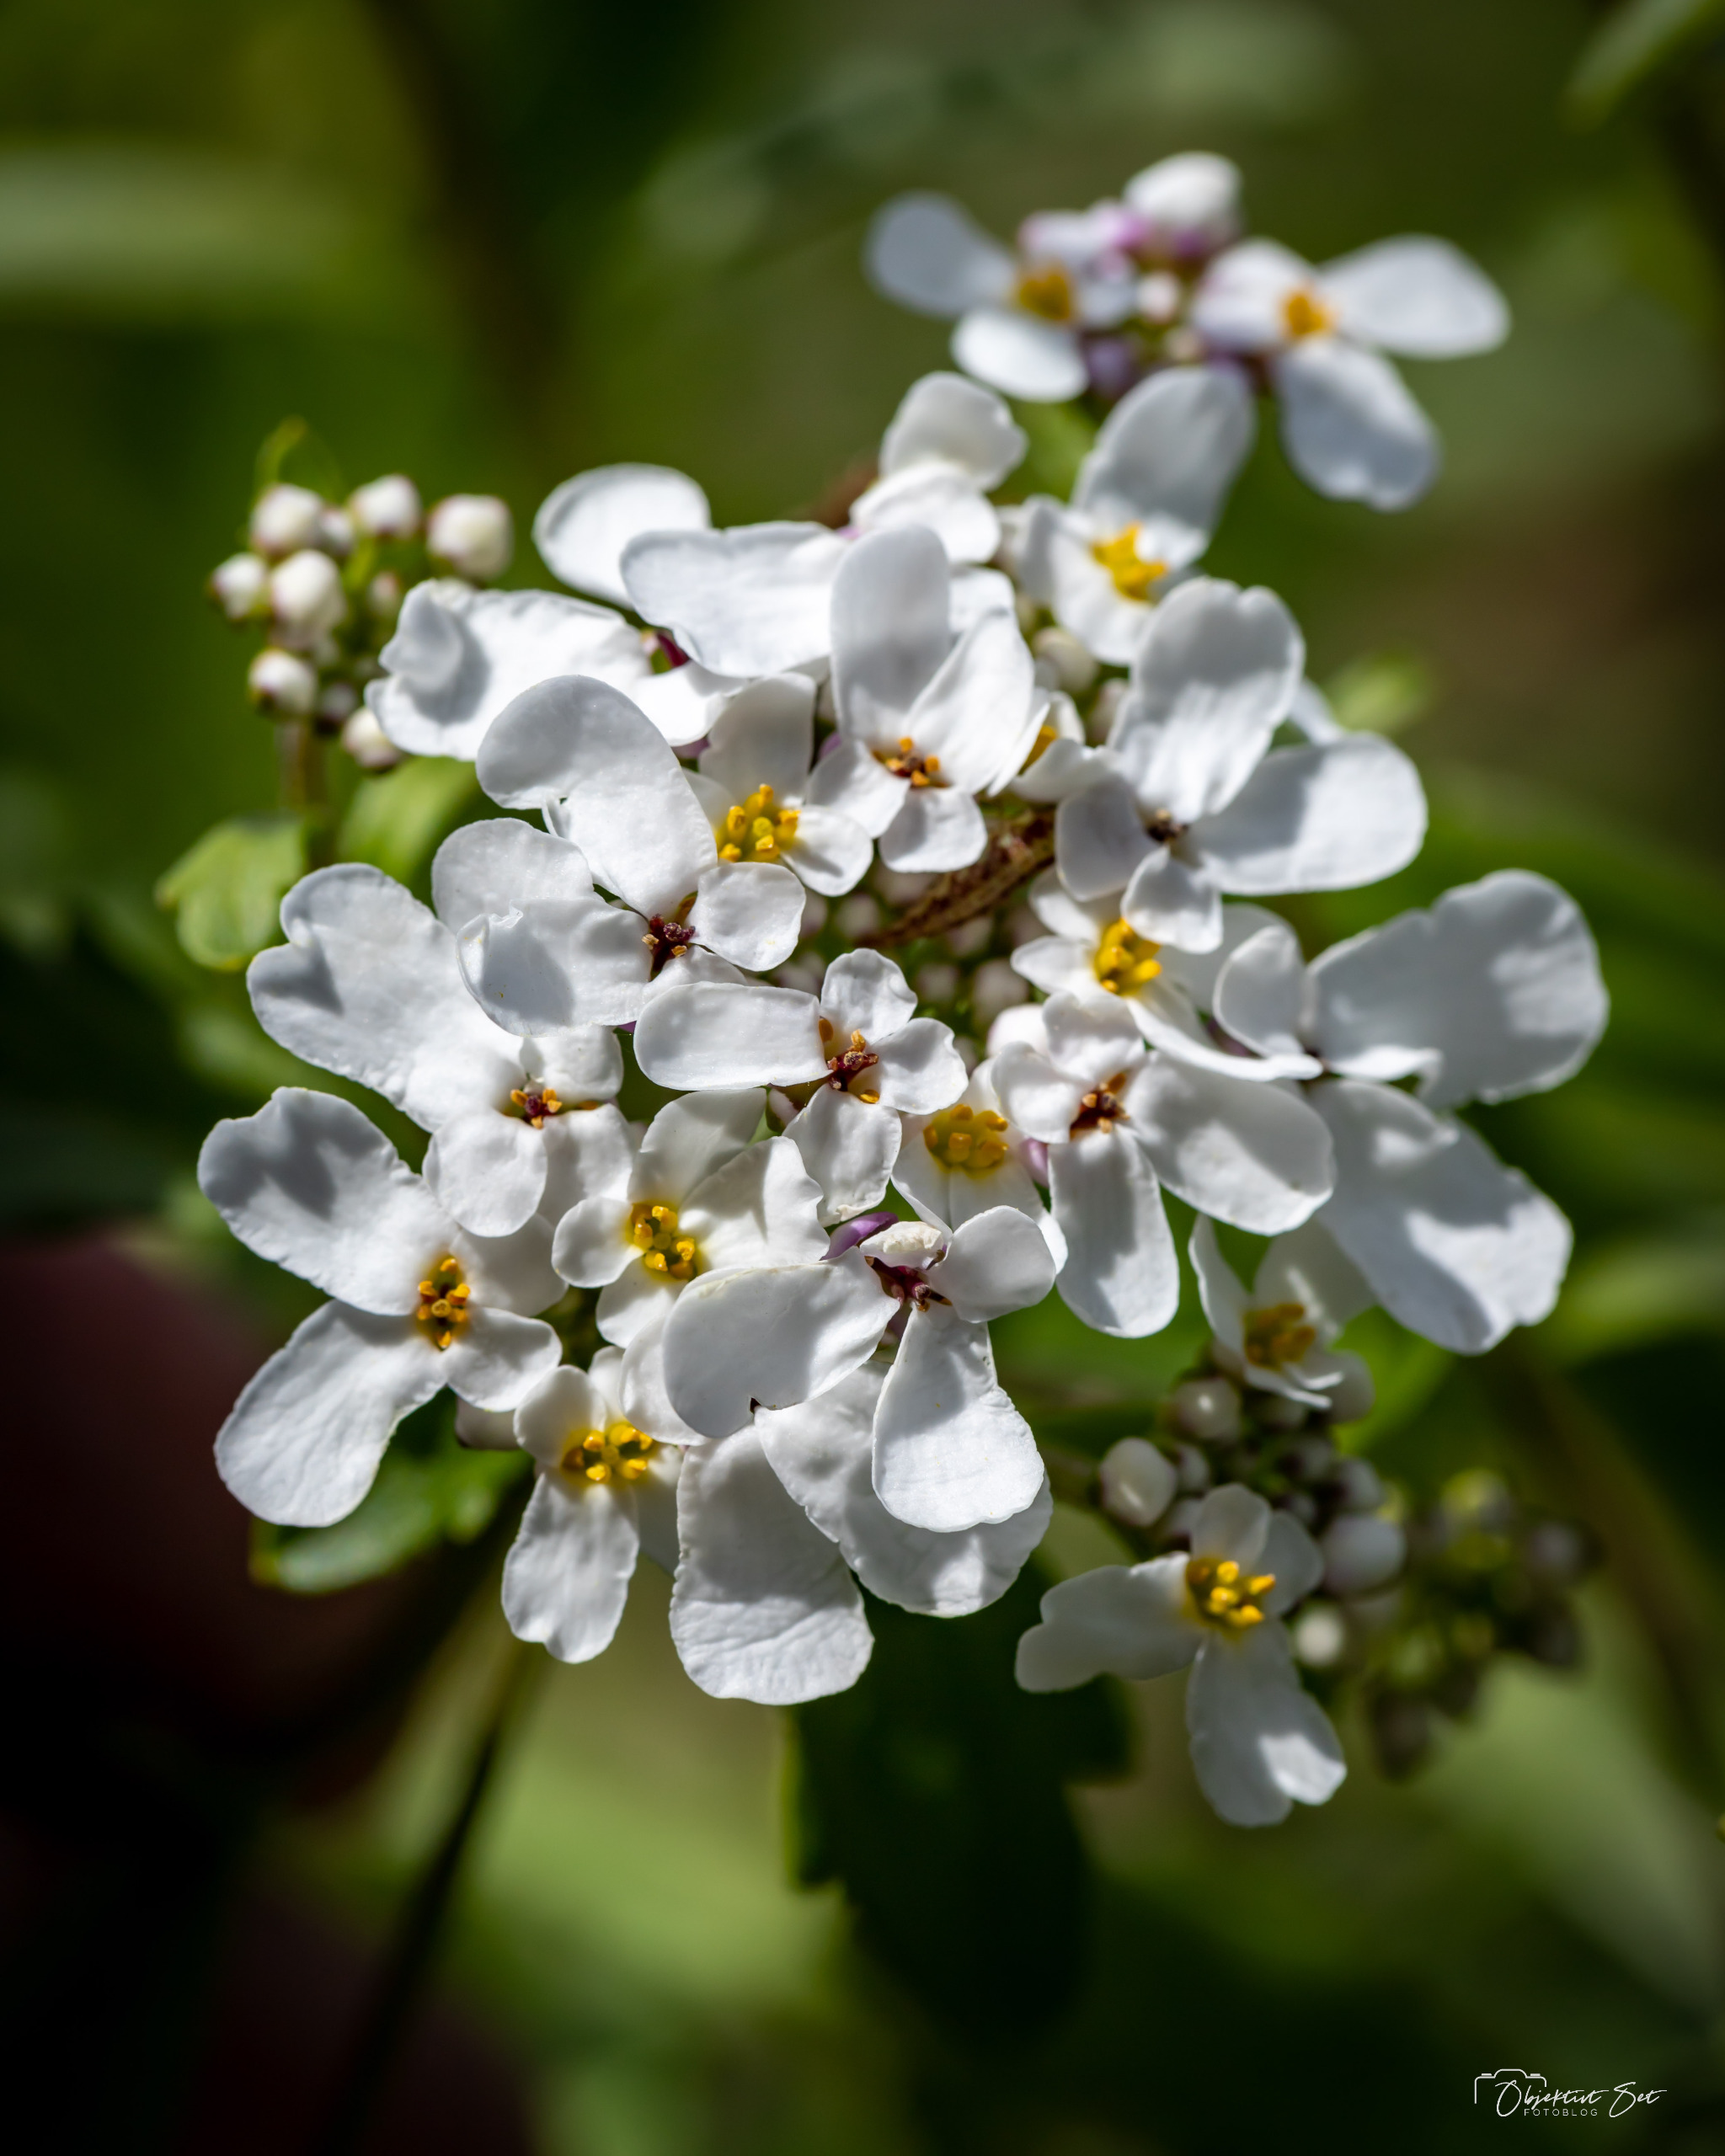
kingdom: Plantae
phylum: Tracheophyta
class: Magnoliopsida
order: Brassicales
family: Brassicaceae
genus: Iberis
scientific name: Iberis amara
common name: Hvid sløjfeblomst
